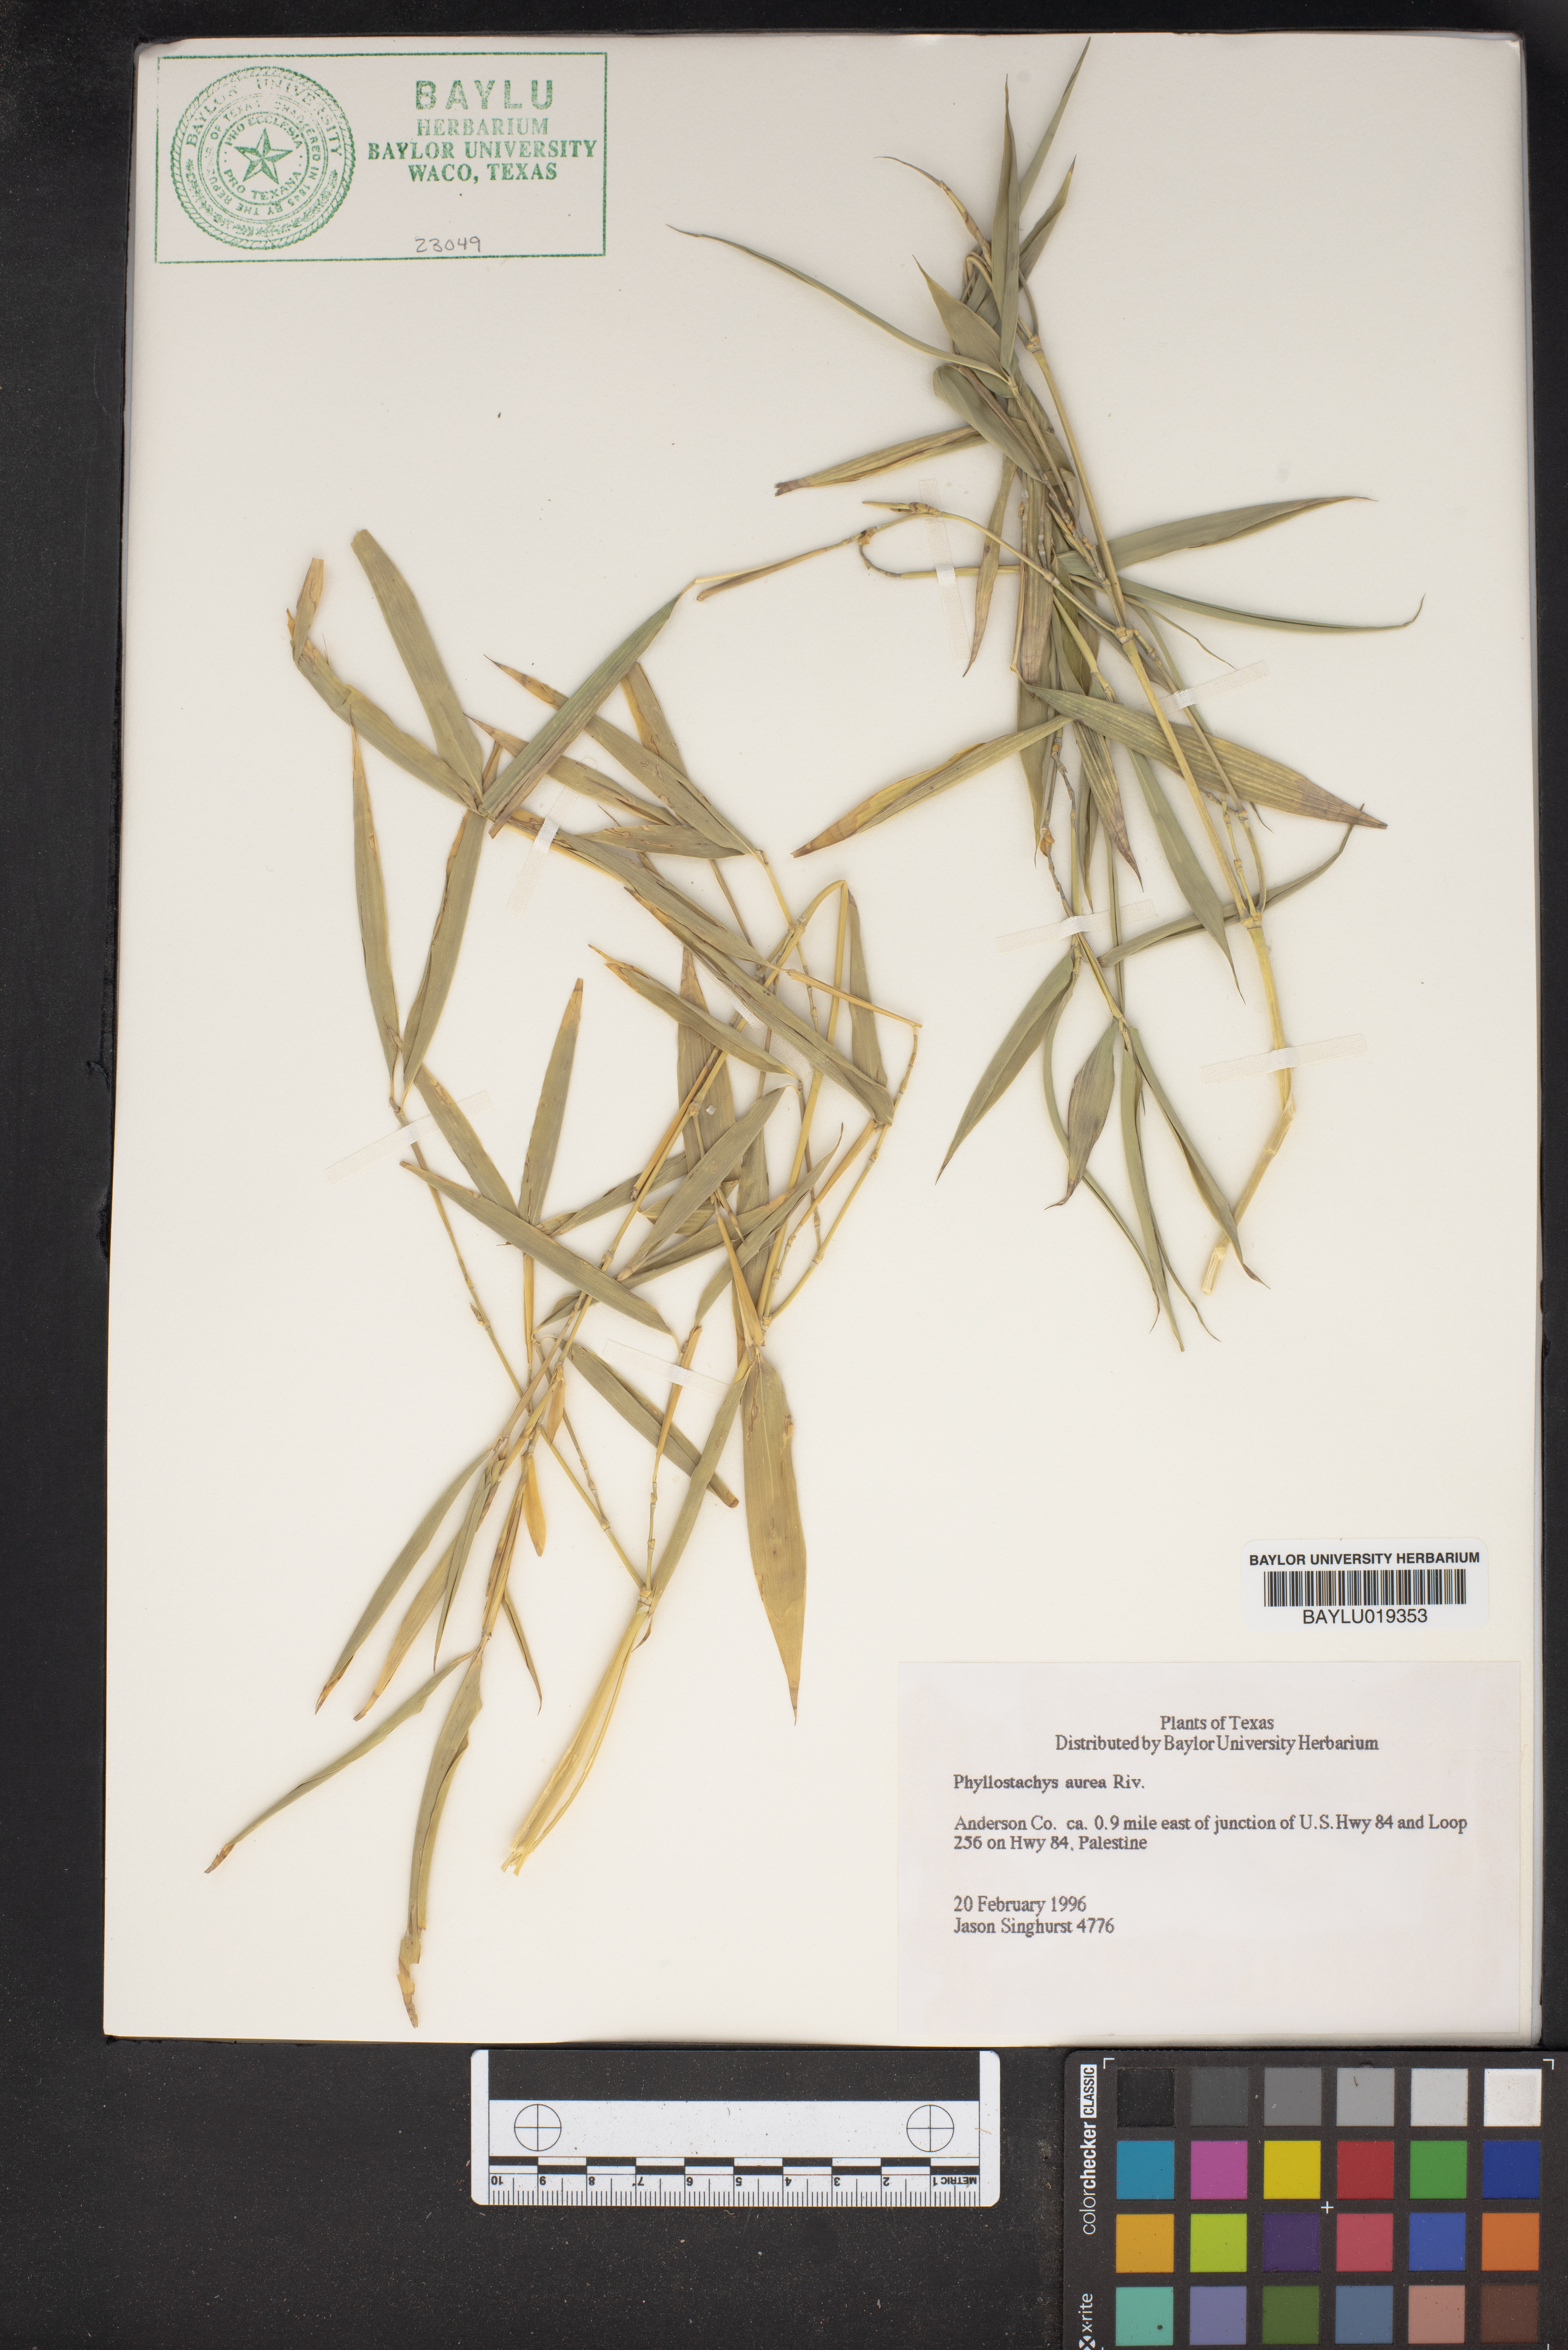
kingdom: Plantae
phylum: Tracheophyta
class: Liliopsida
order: Poales
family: Poaceae
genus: Phyllostachys
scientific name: Phyllostachys aurea
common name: Golden bamboo
